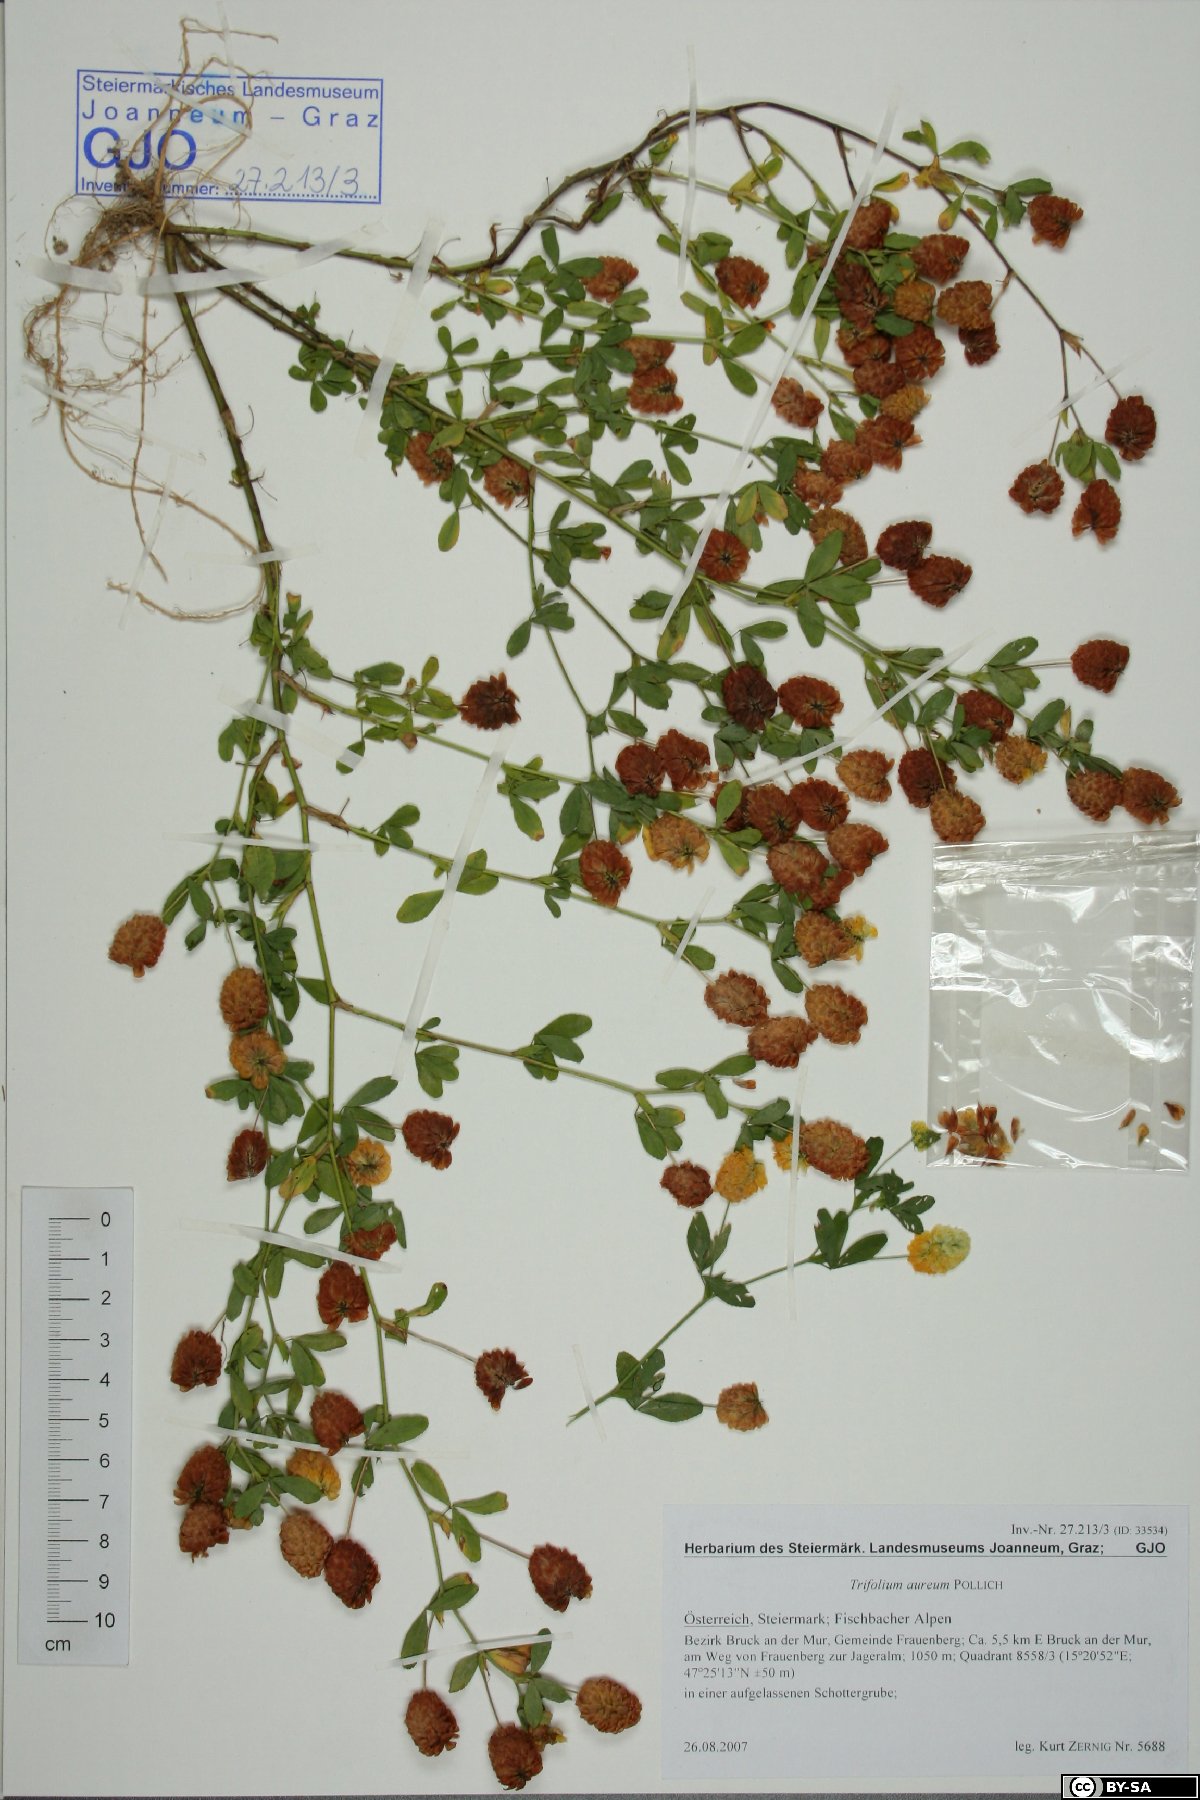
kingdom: Plantae
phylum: Tracheophyta
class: Magnoliopsida
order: Fabales
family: Fabaceae
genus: Trifolium
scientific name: Trifolium aureum
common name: Golden clover
